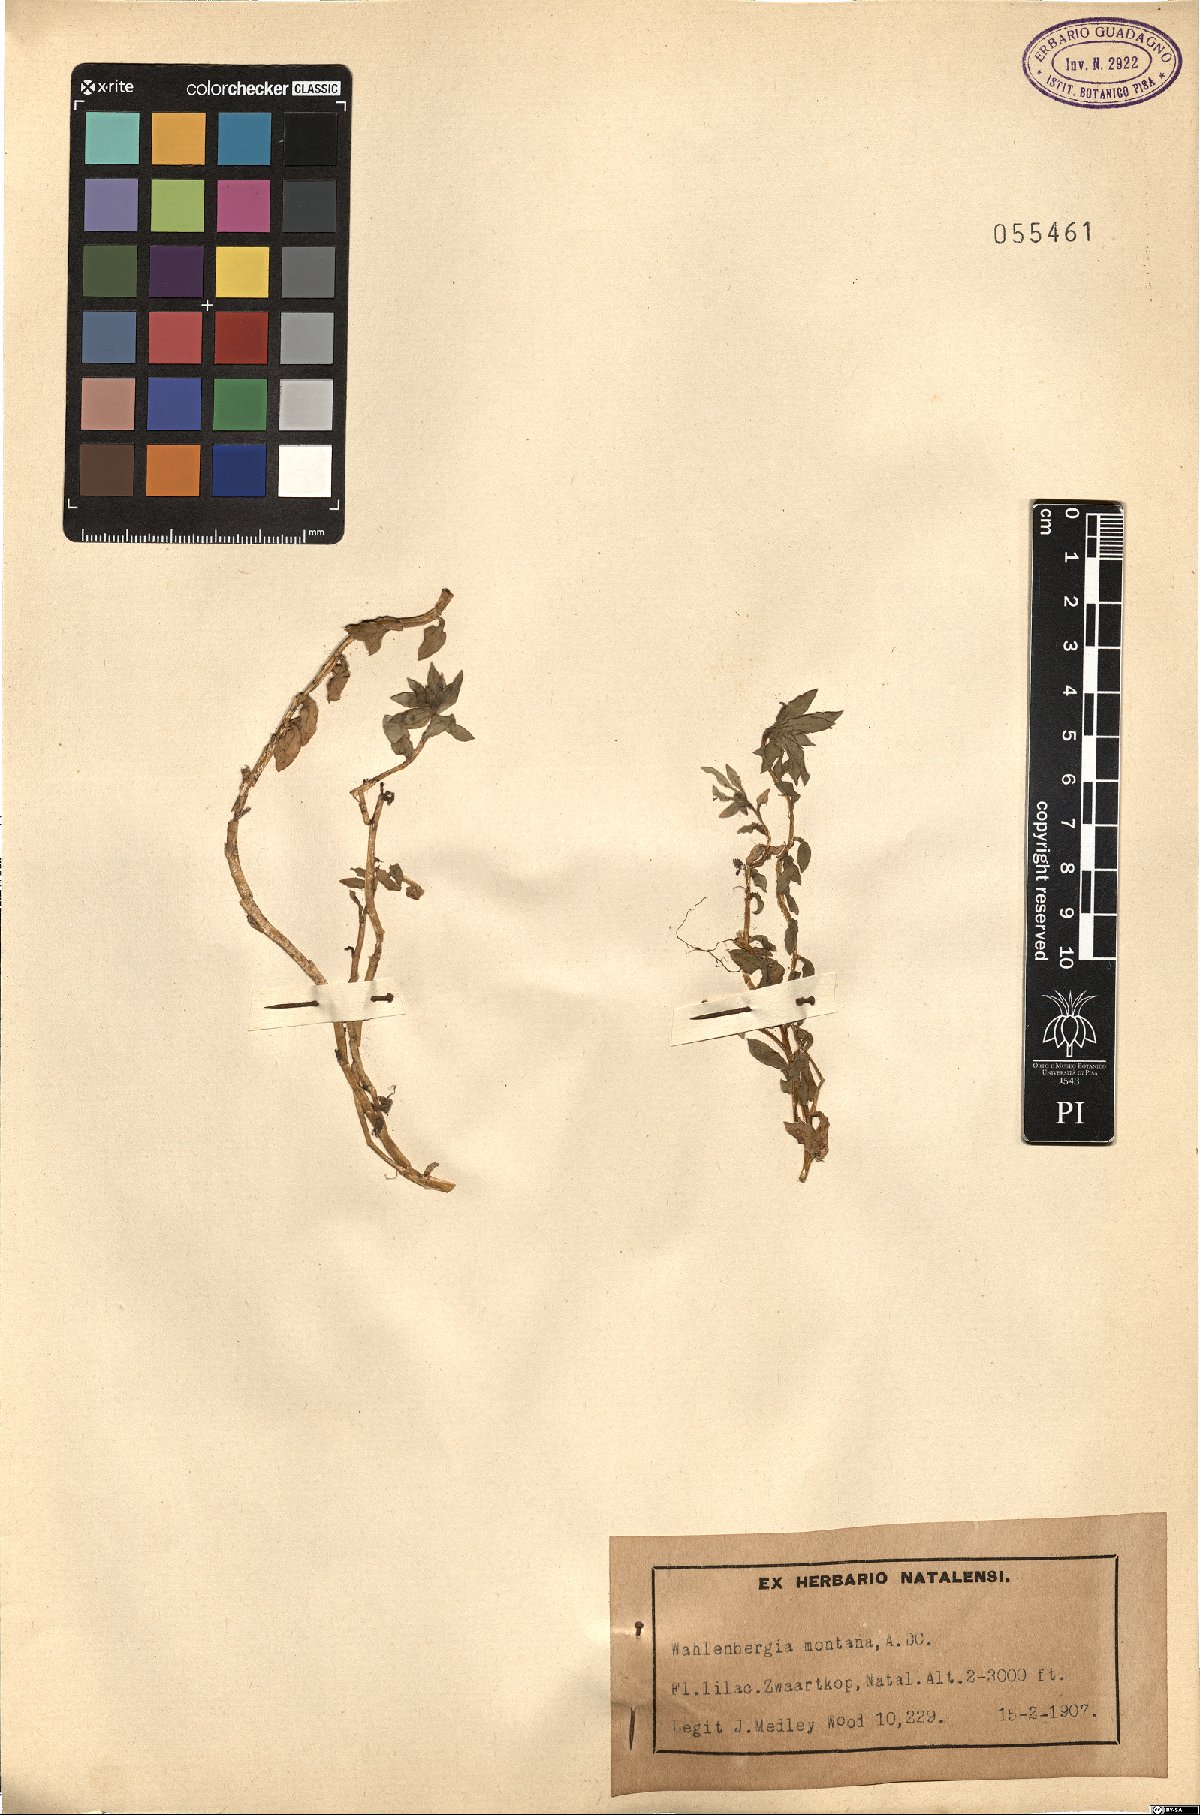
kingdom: Plantae
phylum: Tracheophyta
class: Magnoliopsida
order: Asterales
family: Campanulaceae
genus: Craterocapsa
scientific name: Craterocapsa montana
